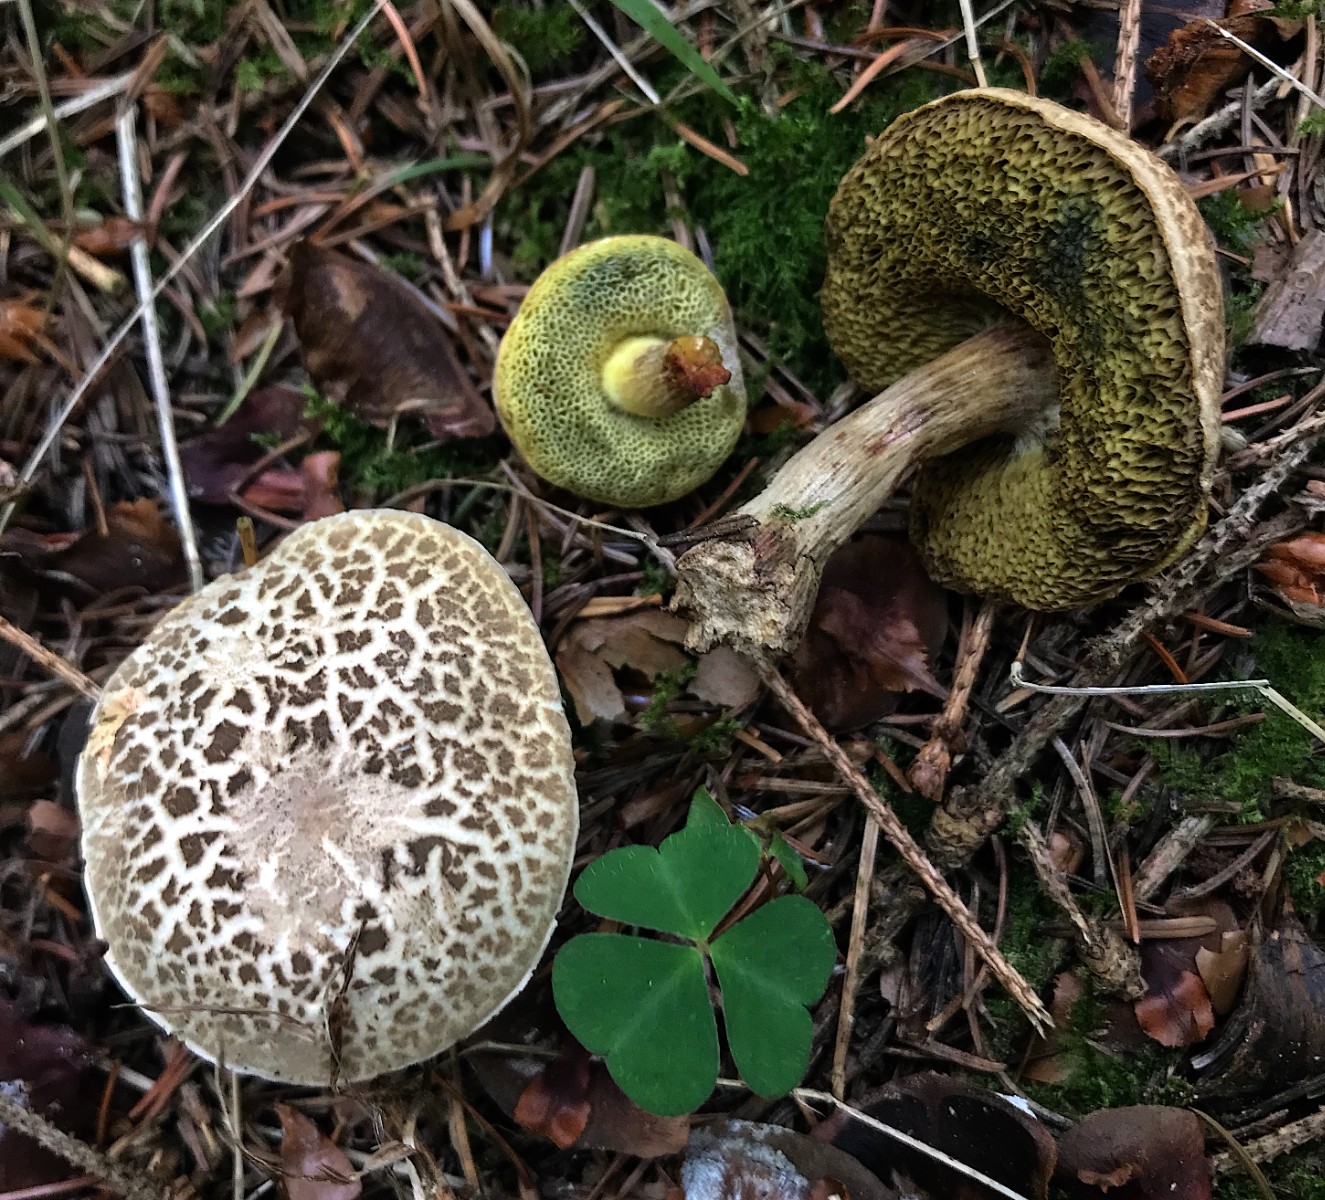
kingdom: Fungi
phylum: Basidiomycota
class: Agaricomycetes
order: Boletales
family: Boletaceae
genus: Xerocomellus
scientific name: Xerocomellus porosporus
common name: hvidsprukken rørhat
